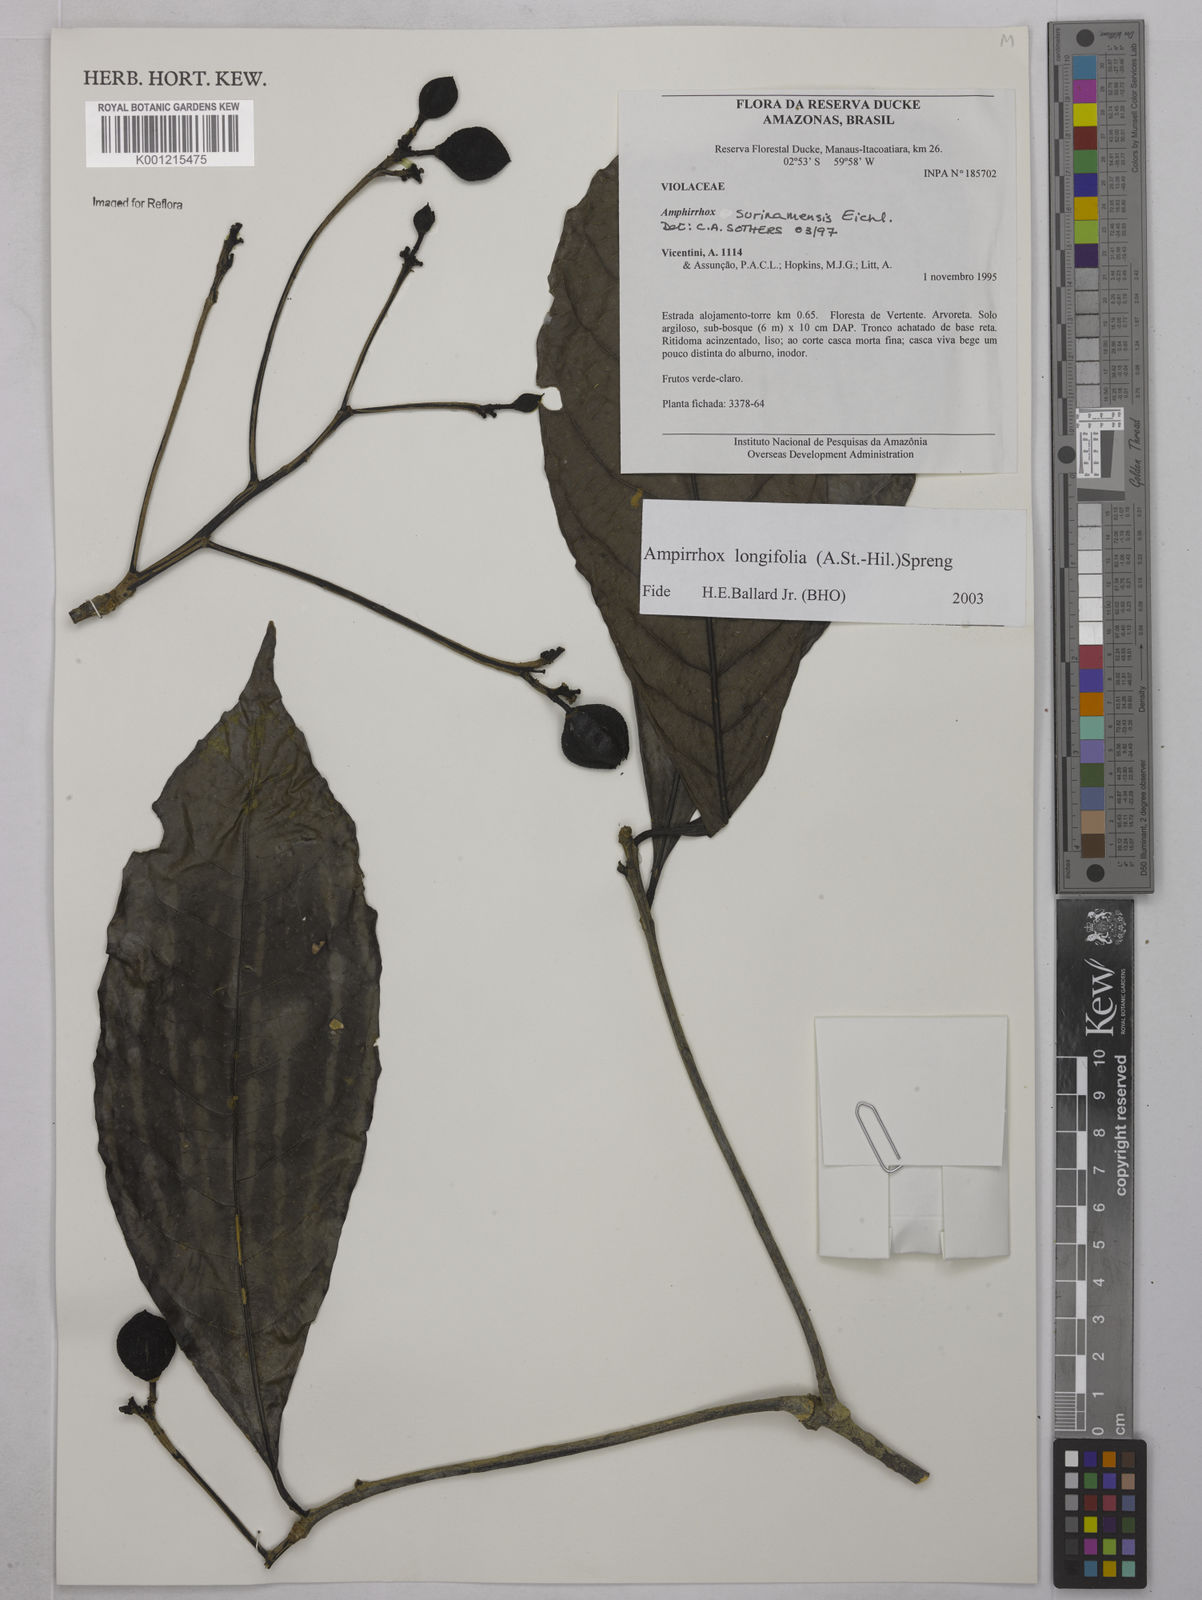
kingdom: Plantae
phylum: Tracheophyta
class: Magnoliopsida
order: Malpighiales
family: Violaceae
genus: Amphirrhox
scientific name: Amphirrhox longifolia
